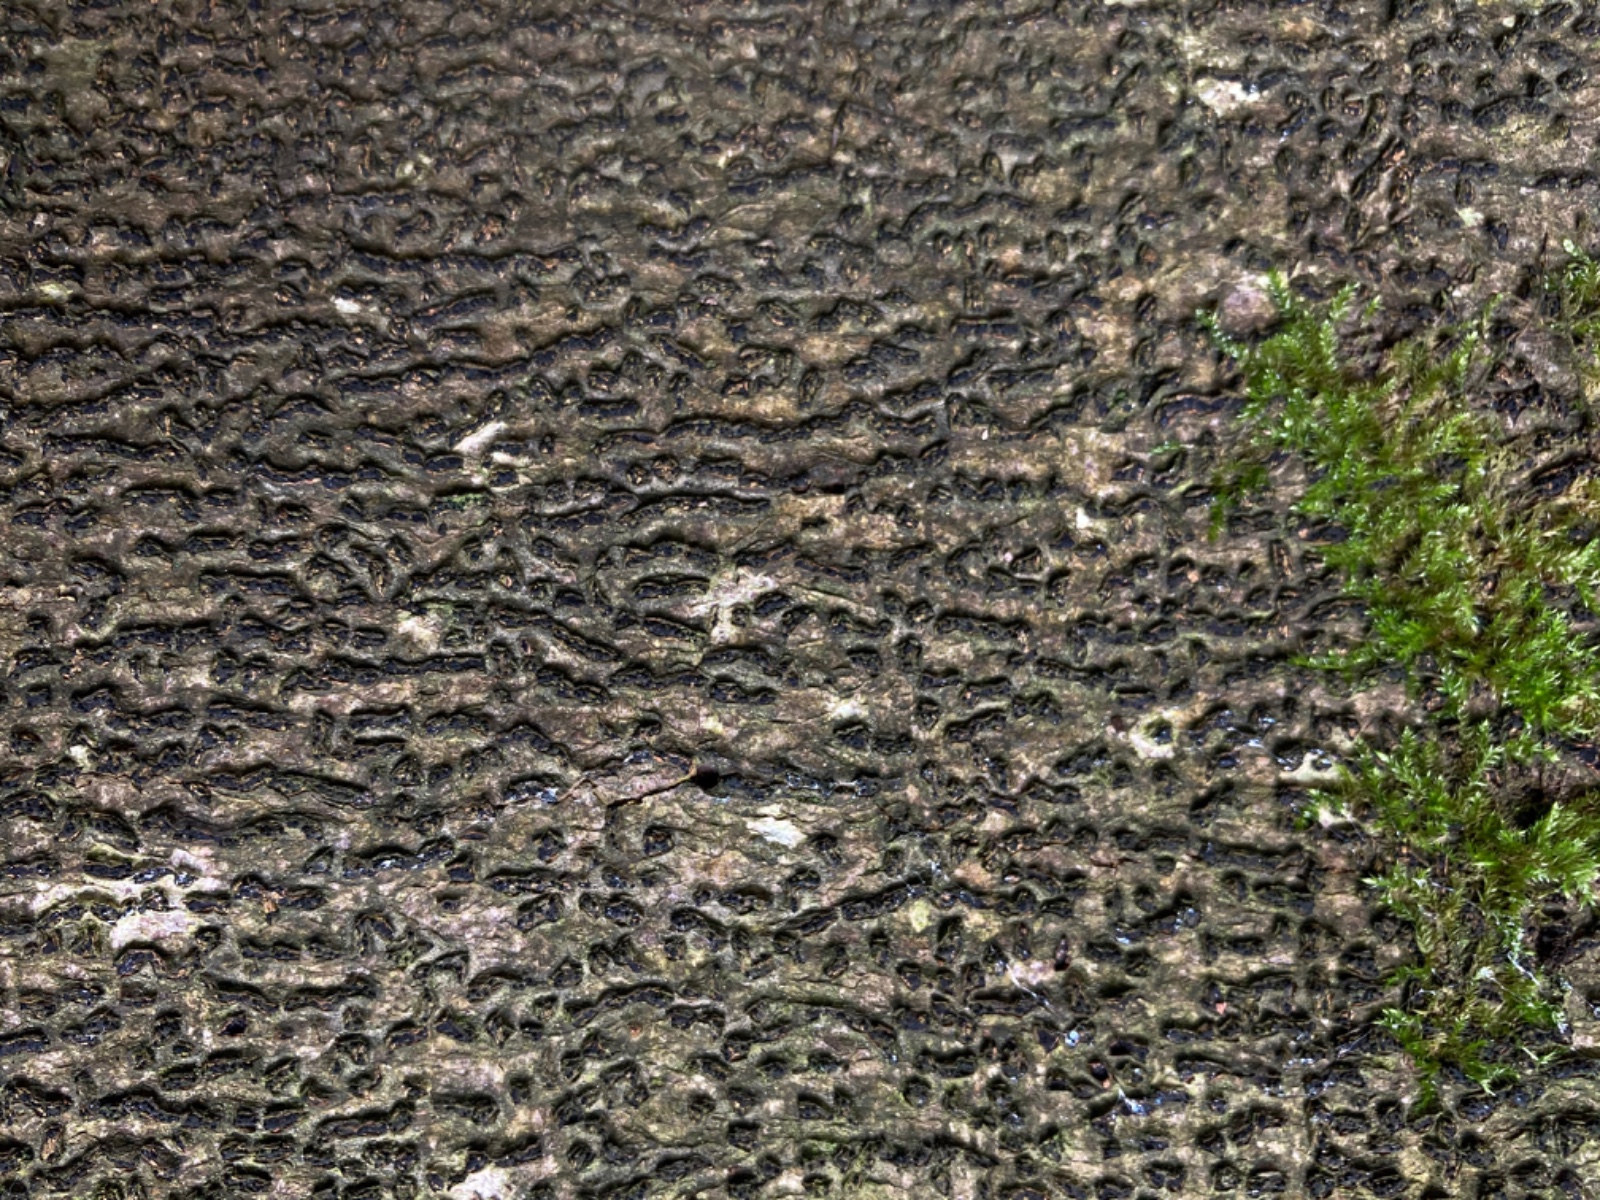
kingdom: Fungi
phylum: Ascomycota
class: Sordariomycetes
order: Xylariales
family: Melogrammataceae
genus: Melogramma
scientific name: Melogramma spiniferum
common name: bøgefod-kulhals
